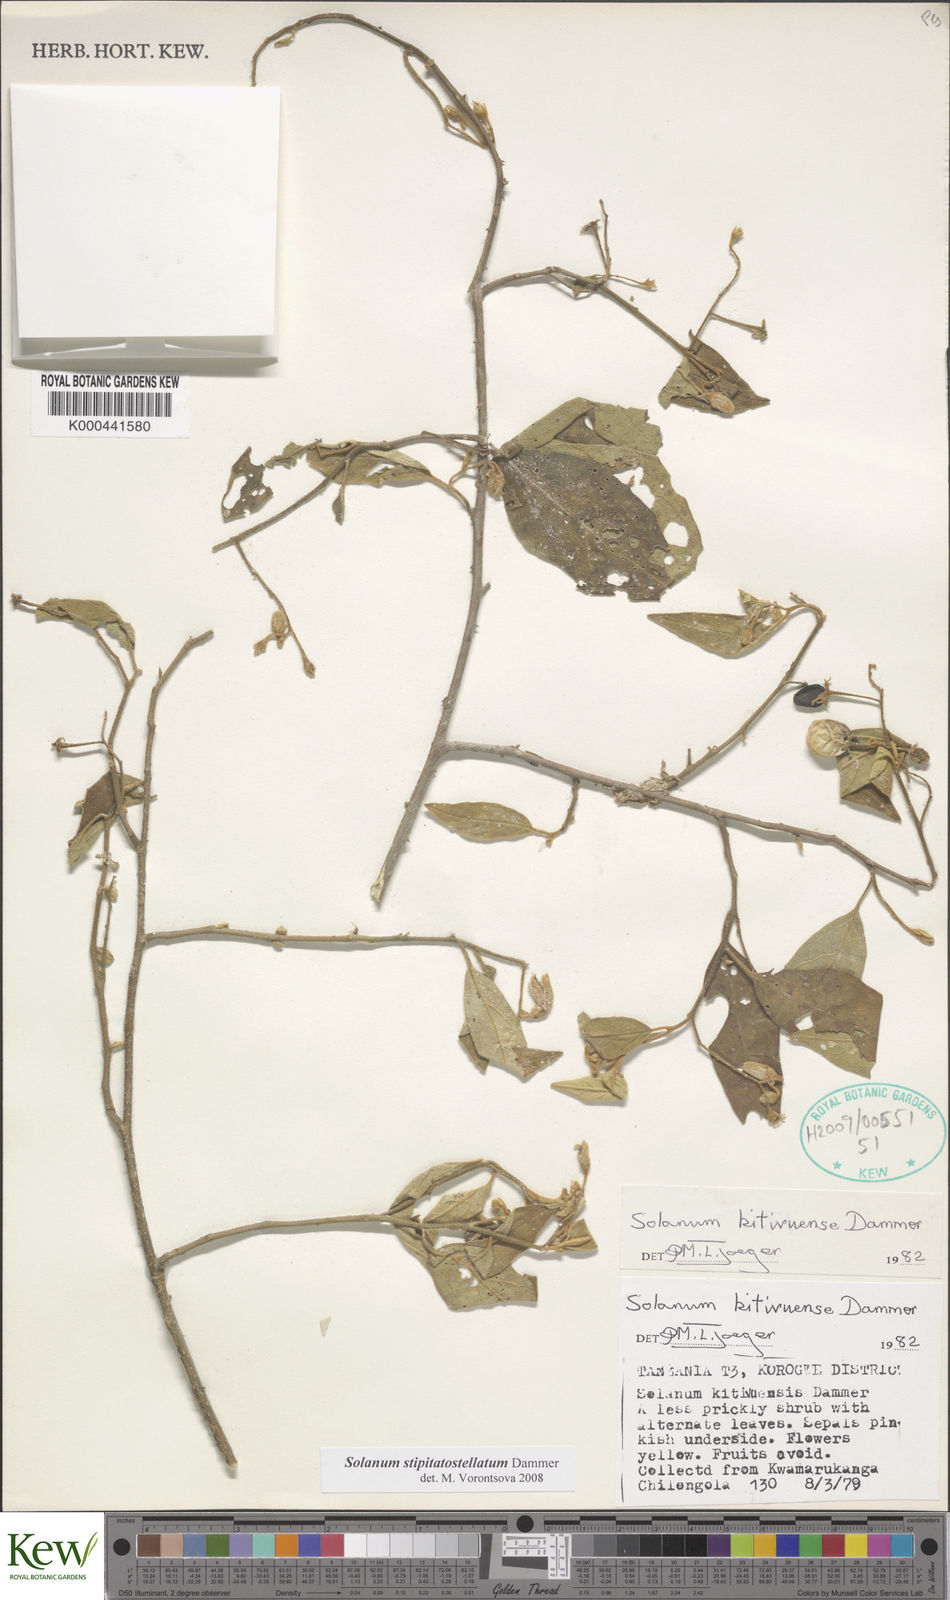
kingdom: Plantae
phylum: Tracheophyta
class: Magnoliopsida
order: Solanales
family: Solanaceae
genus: Solanum
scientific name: Solanum stipitatostellatum
